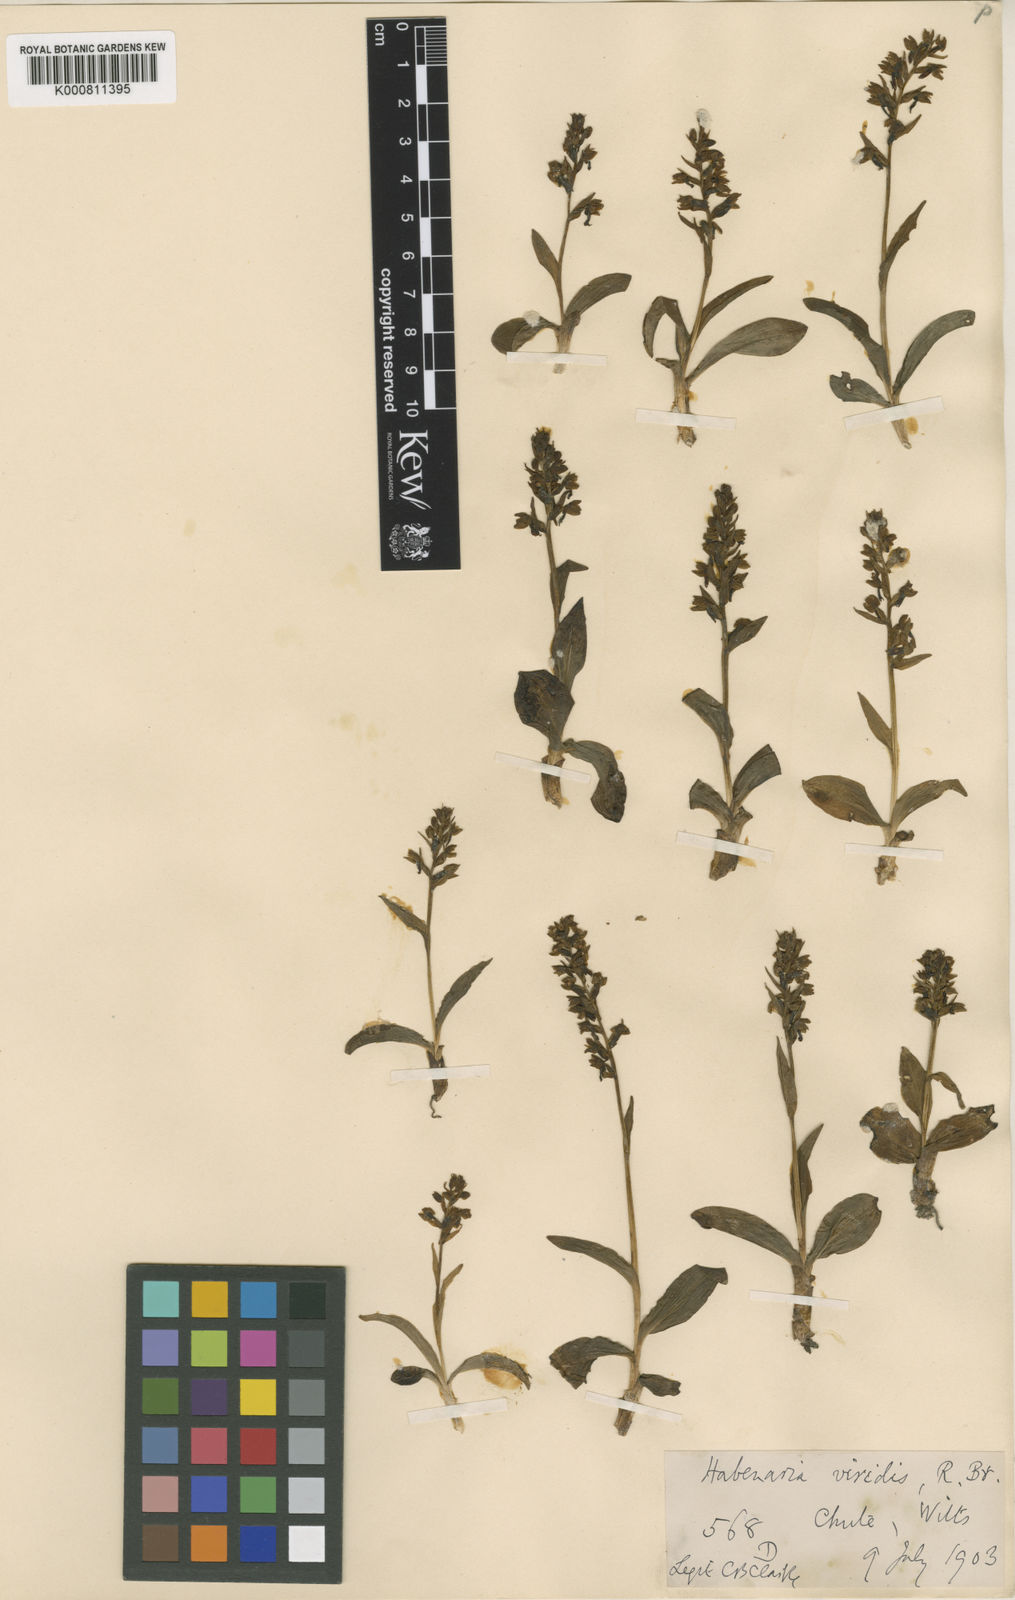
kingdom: Plantae
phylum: Tracheophyta
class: Liliopsida
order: Asparagales
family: Orchidaceae
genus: Dactylorhiza
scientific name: Dactylorhiza viridis
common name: Longbract frog orchid
